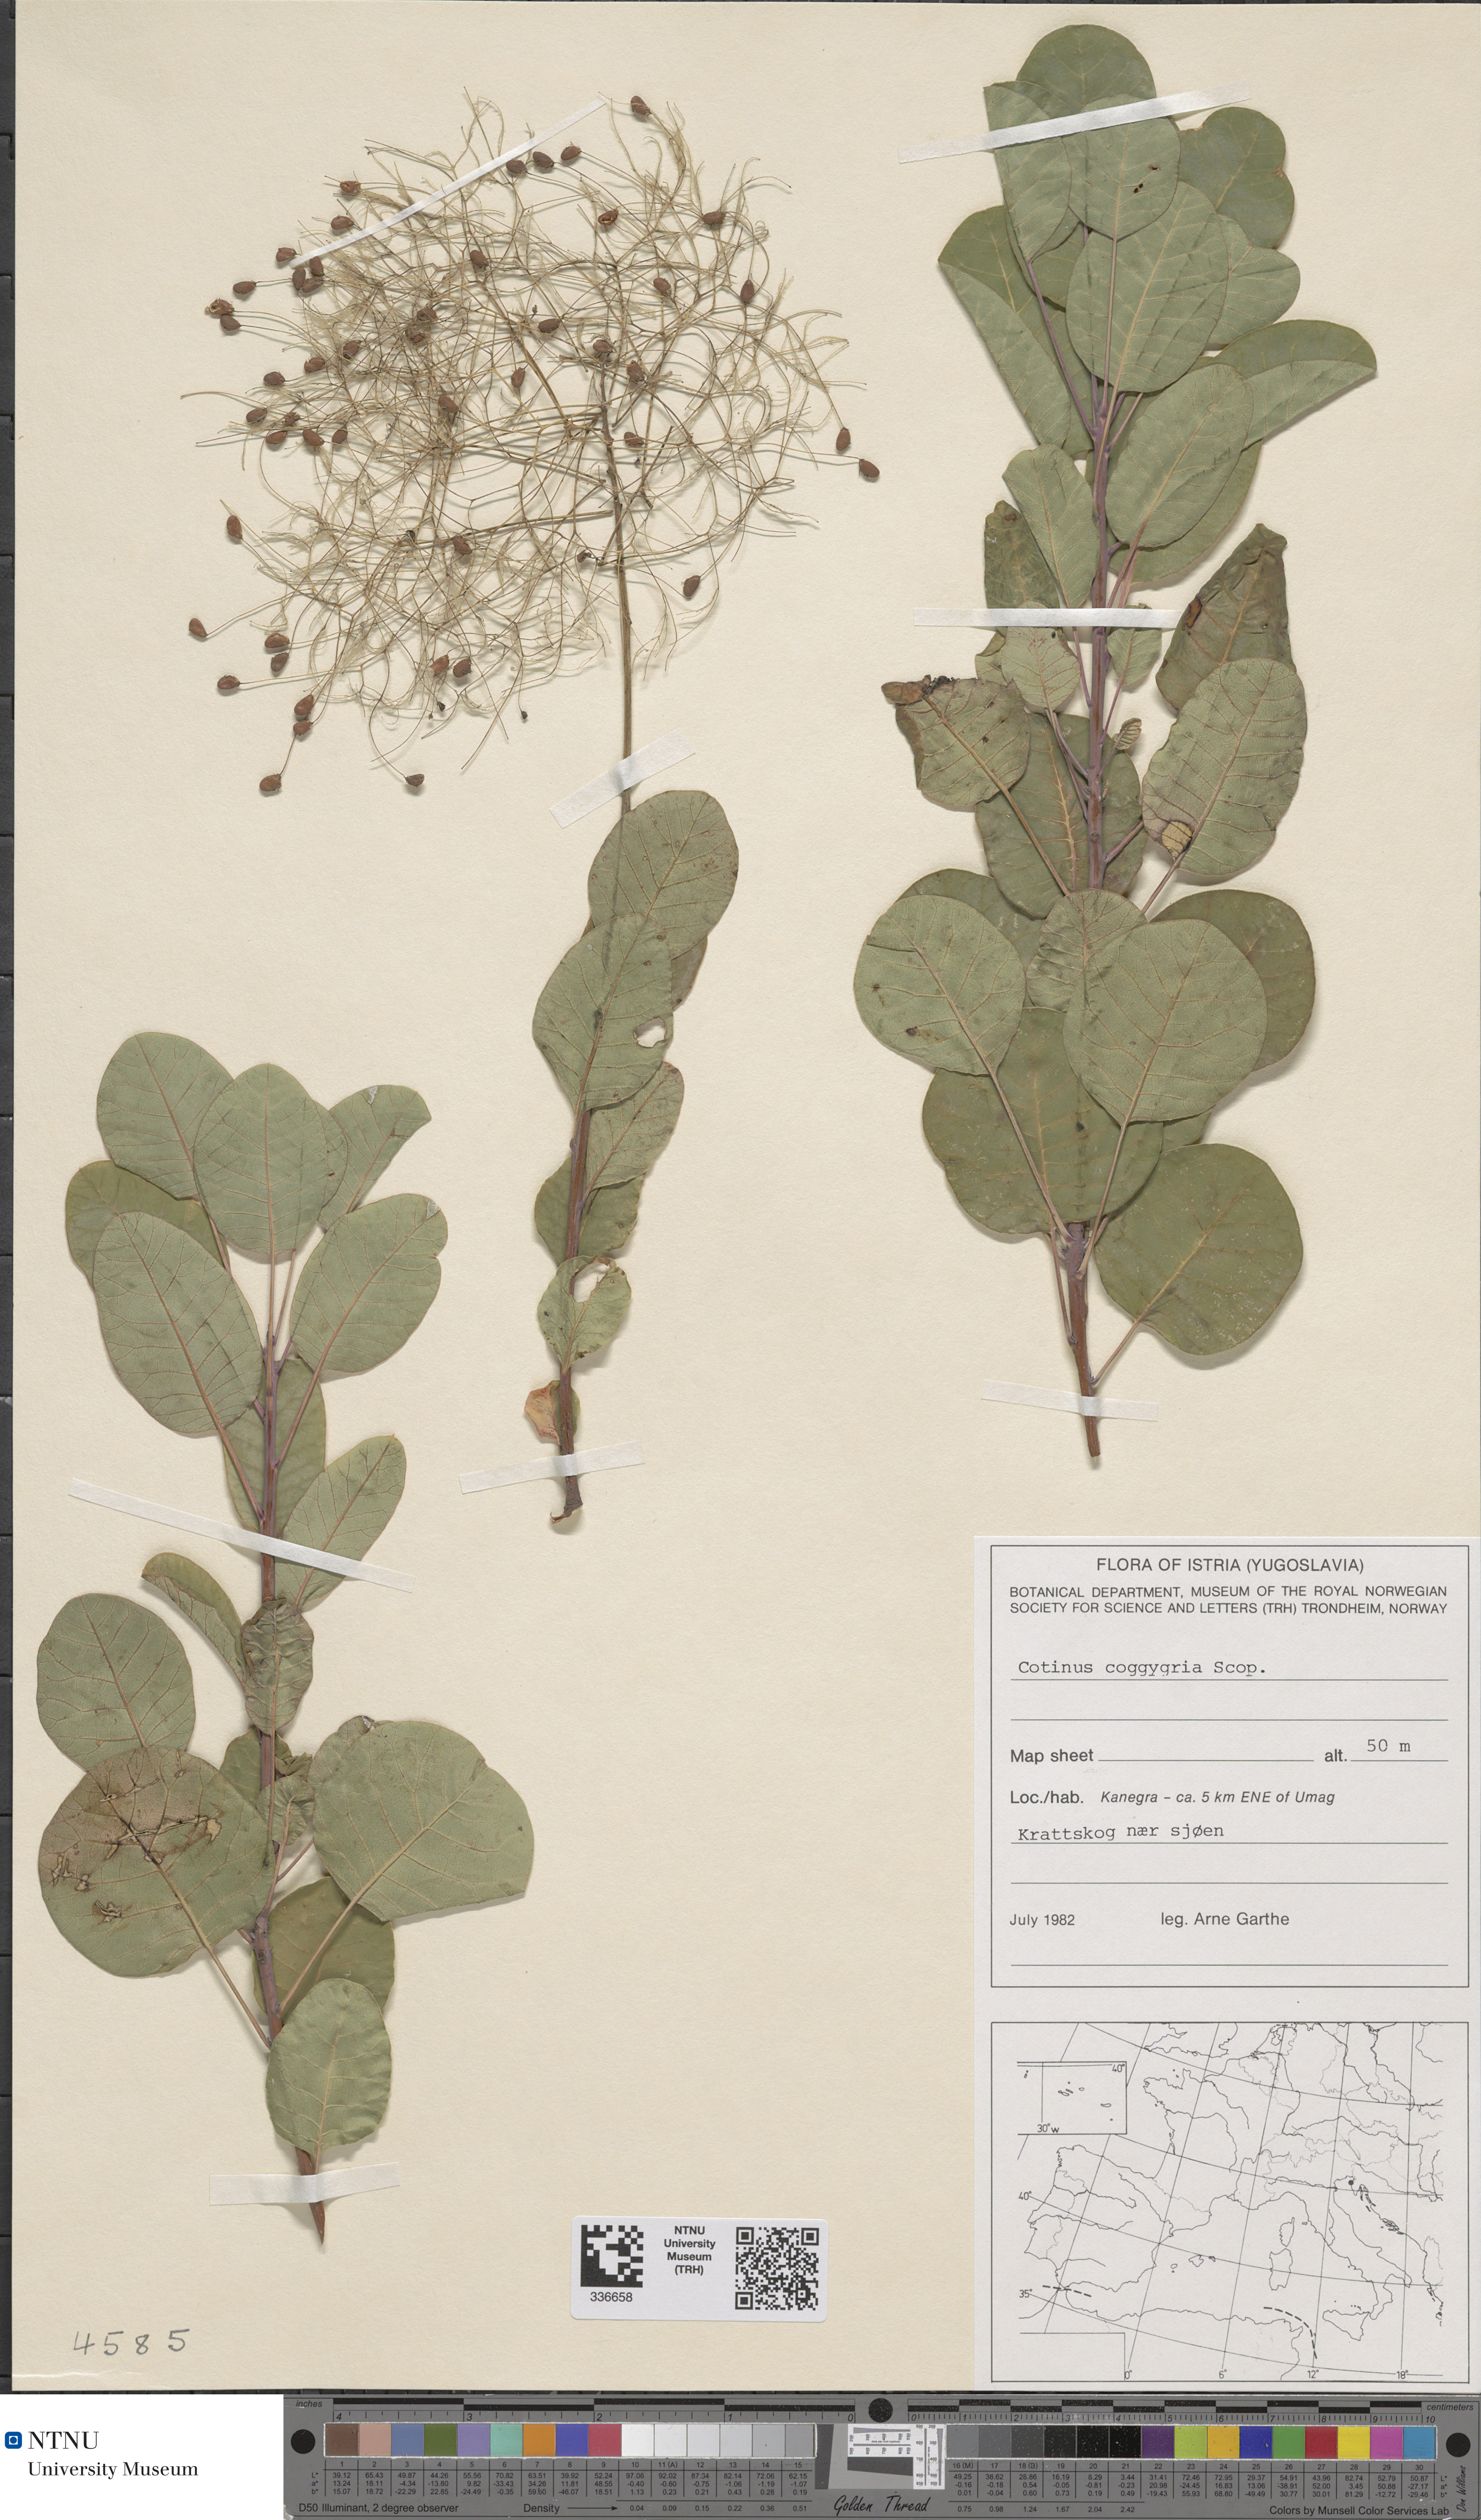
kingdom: Plantae
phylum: Tracheophyta
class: Magnoliopsida
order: Sapindales
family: Anacardiaceae
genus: Cotinus
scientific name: Cotinus coggygria
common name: Smoke-tree
